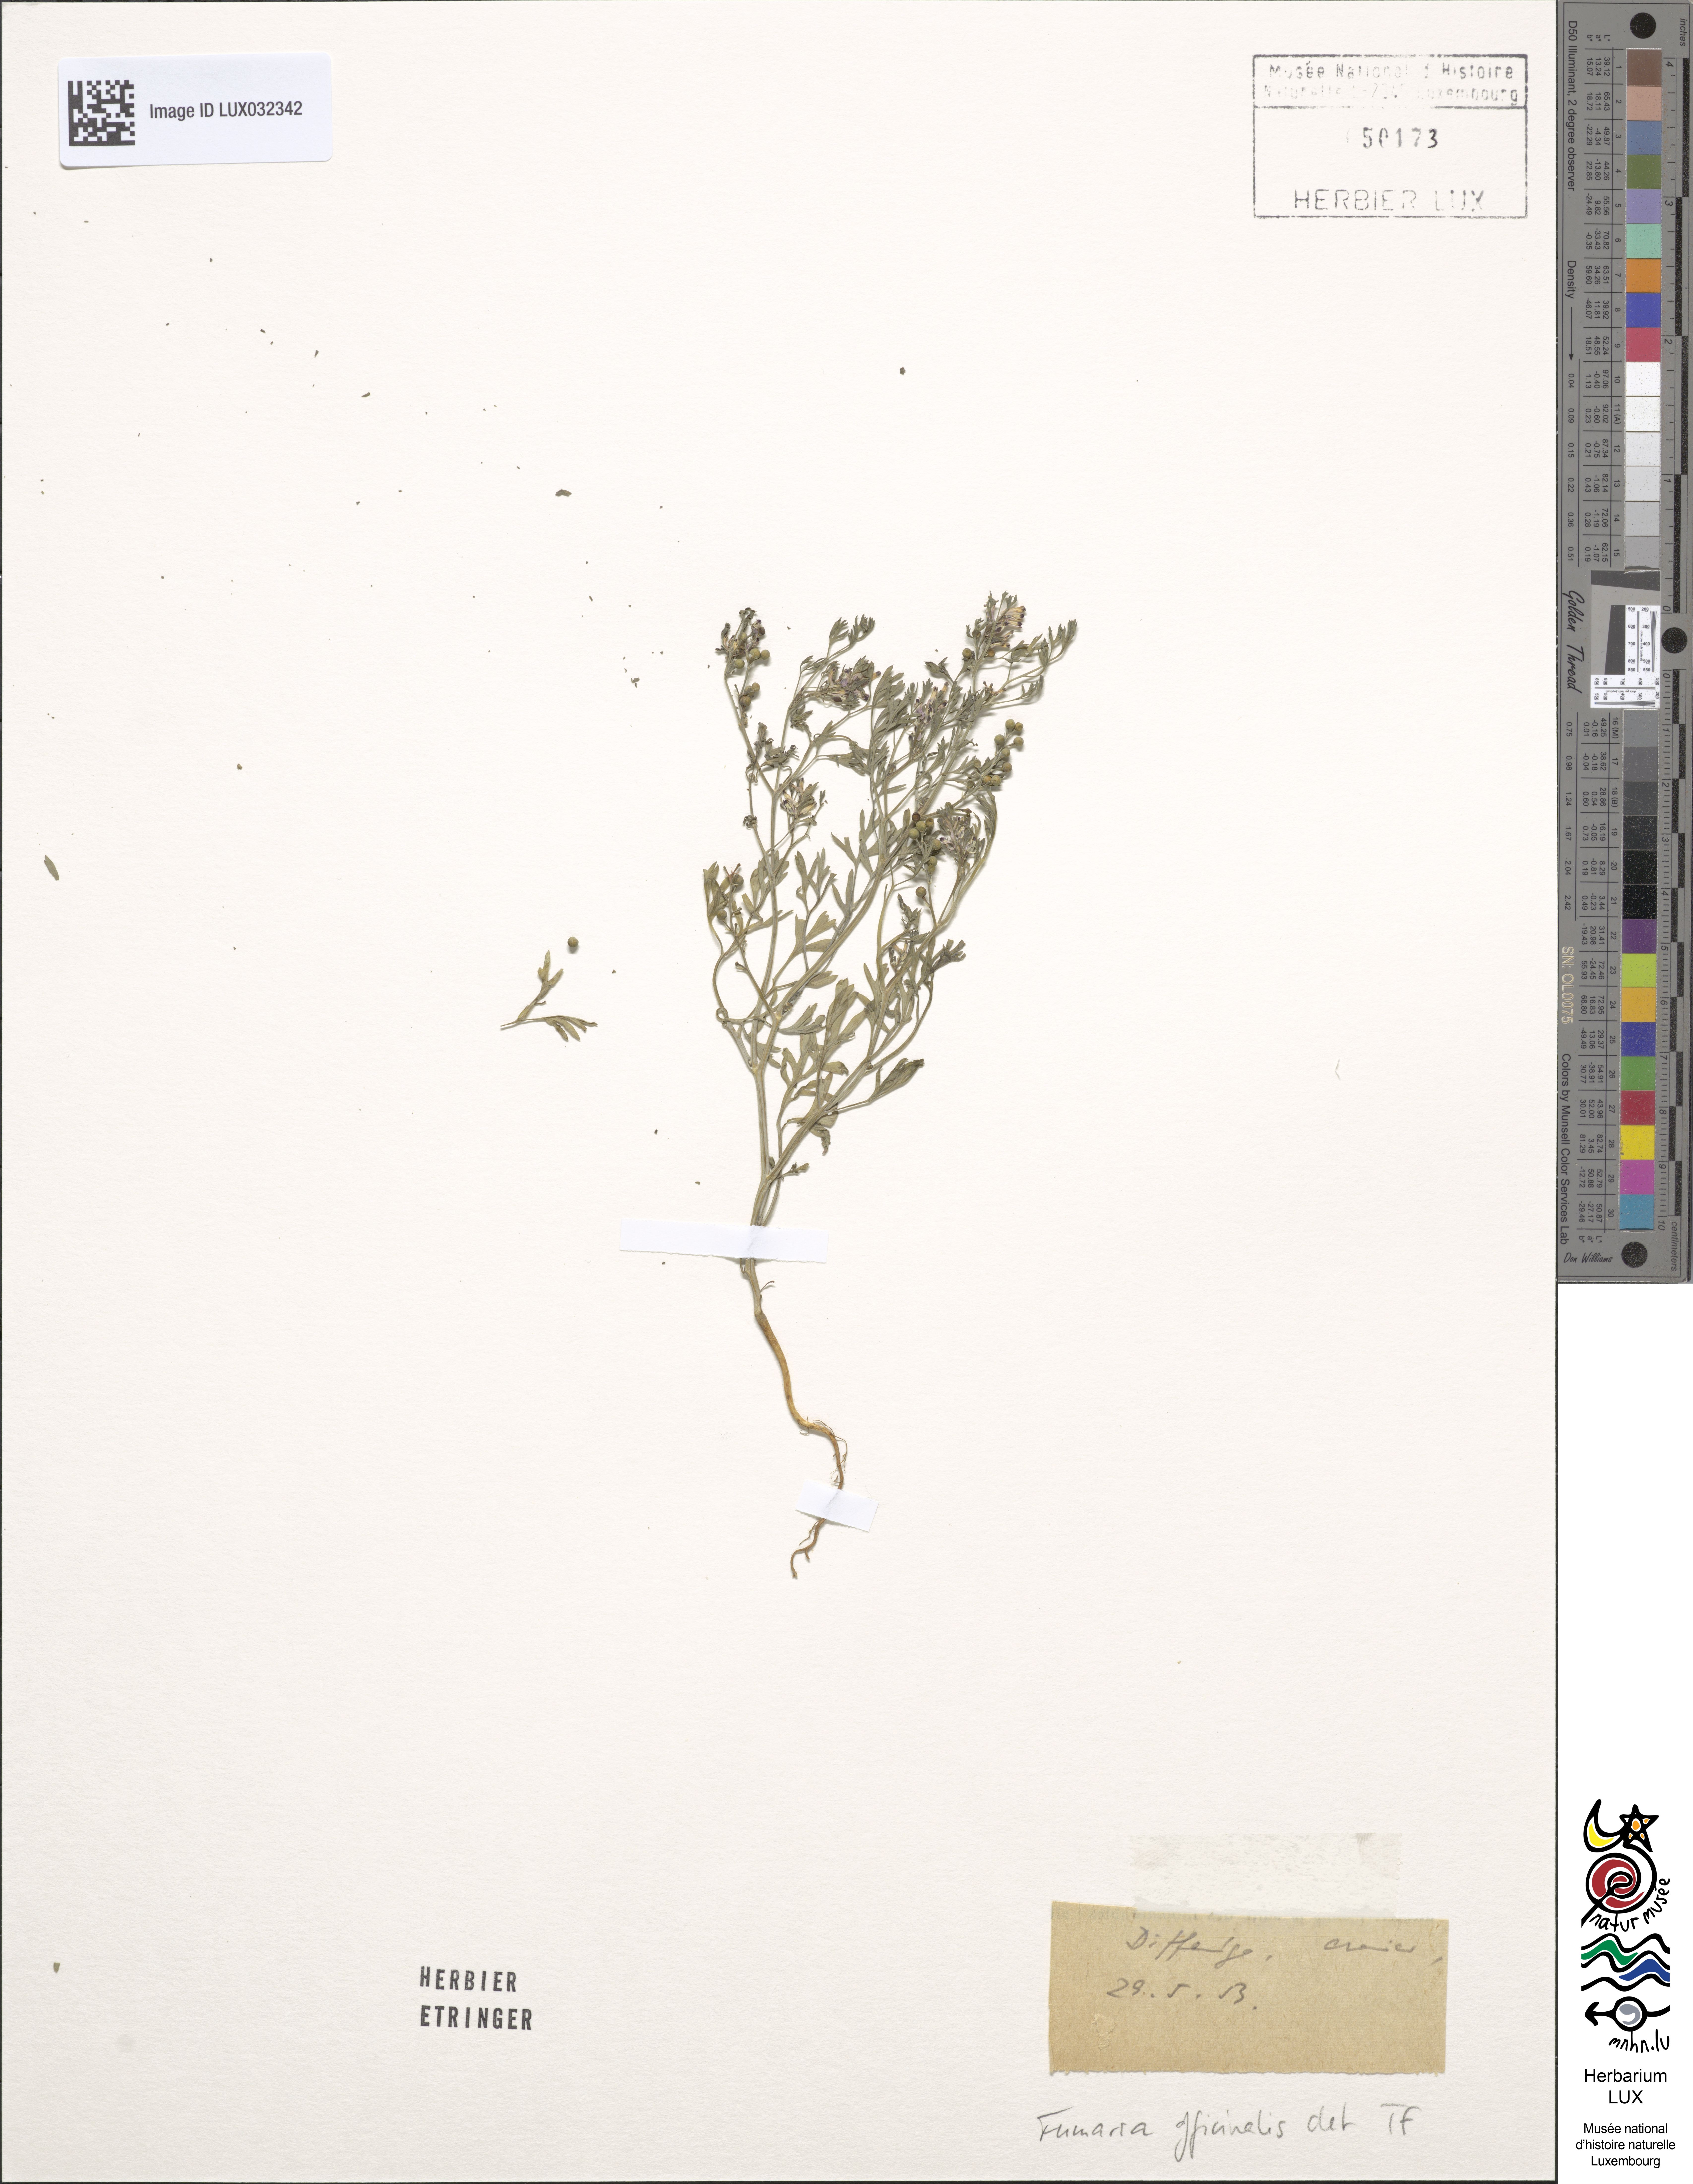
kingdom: Plantae
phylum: Tracheophyta
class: Magnoliopsida
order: Ranunculales
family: Papaveraceae
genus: Fumaria
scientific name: Fumaria officinalis
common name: Common fumitory
